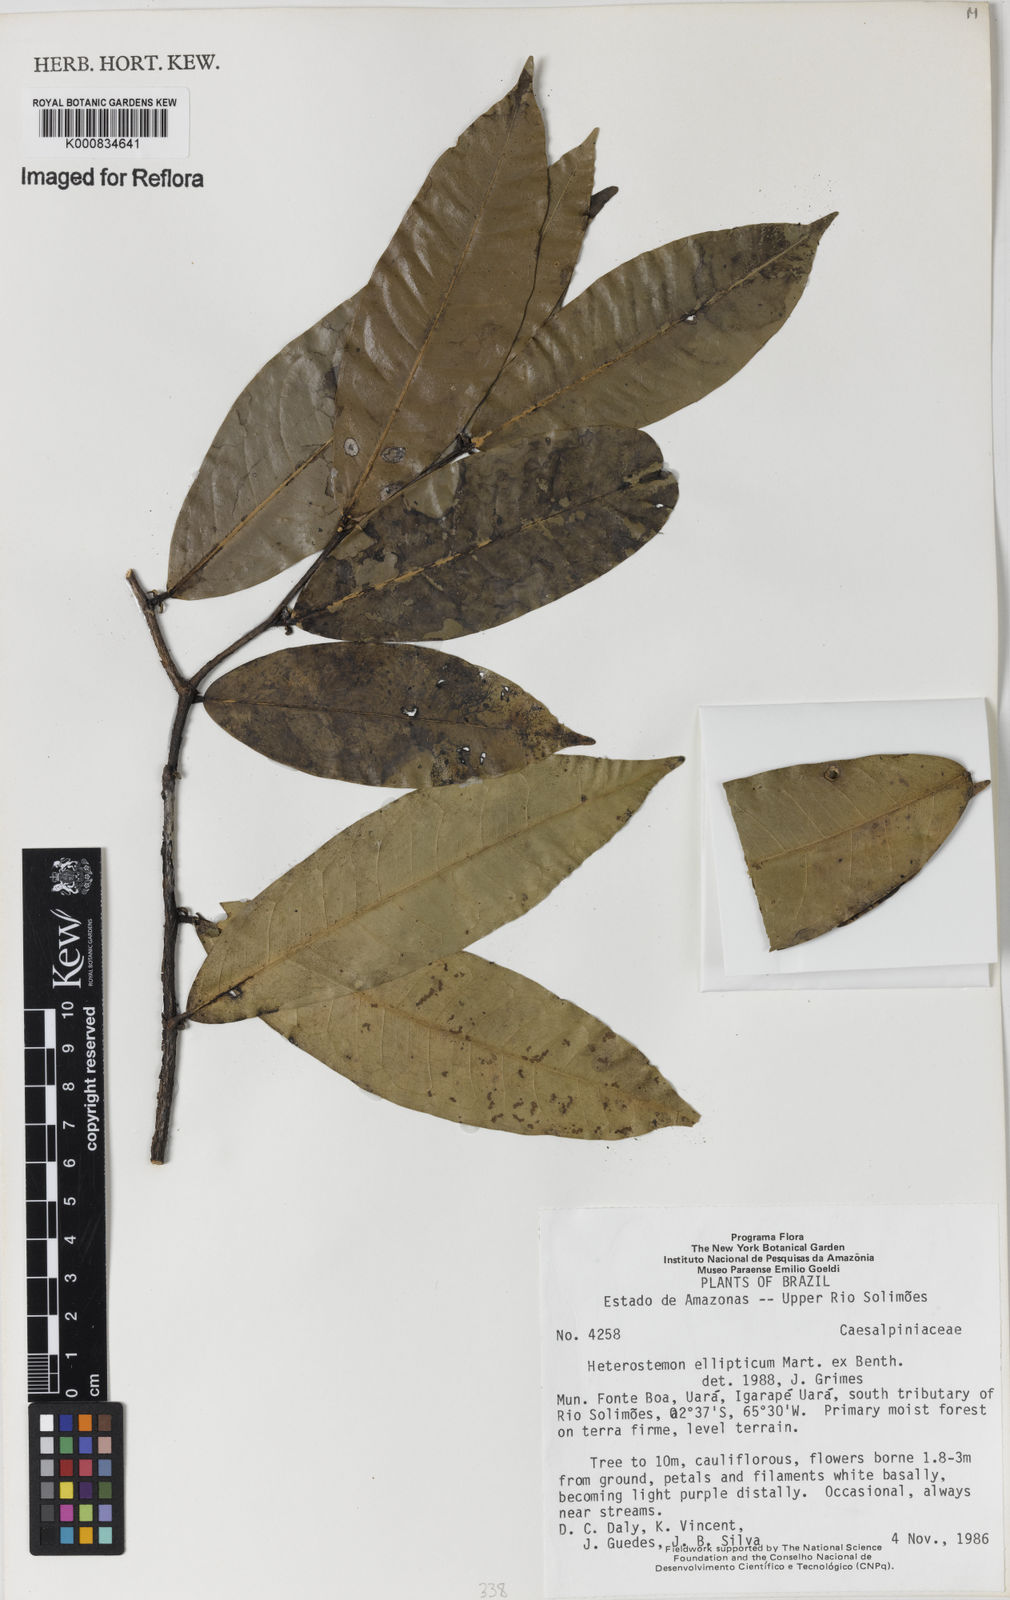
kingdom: Plantae
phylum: Tracheophyta
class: Magnoliopsida
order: Fabales
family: Fabaceae
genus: Heterostemon
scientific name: Heterostemon ellipticus
